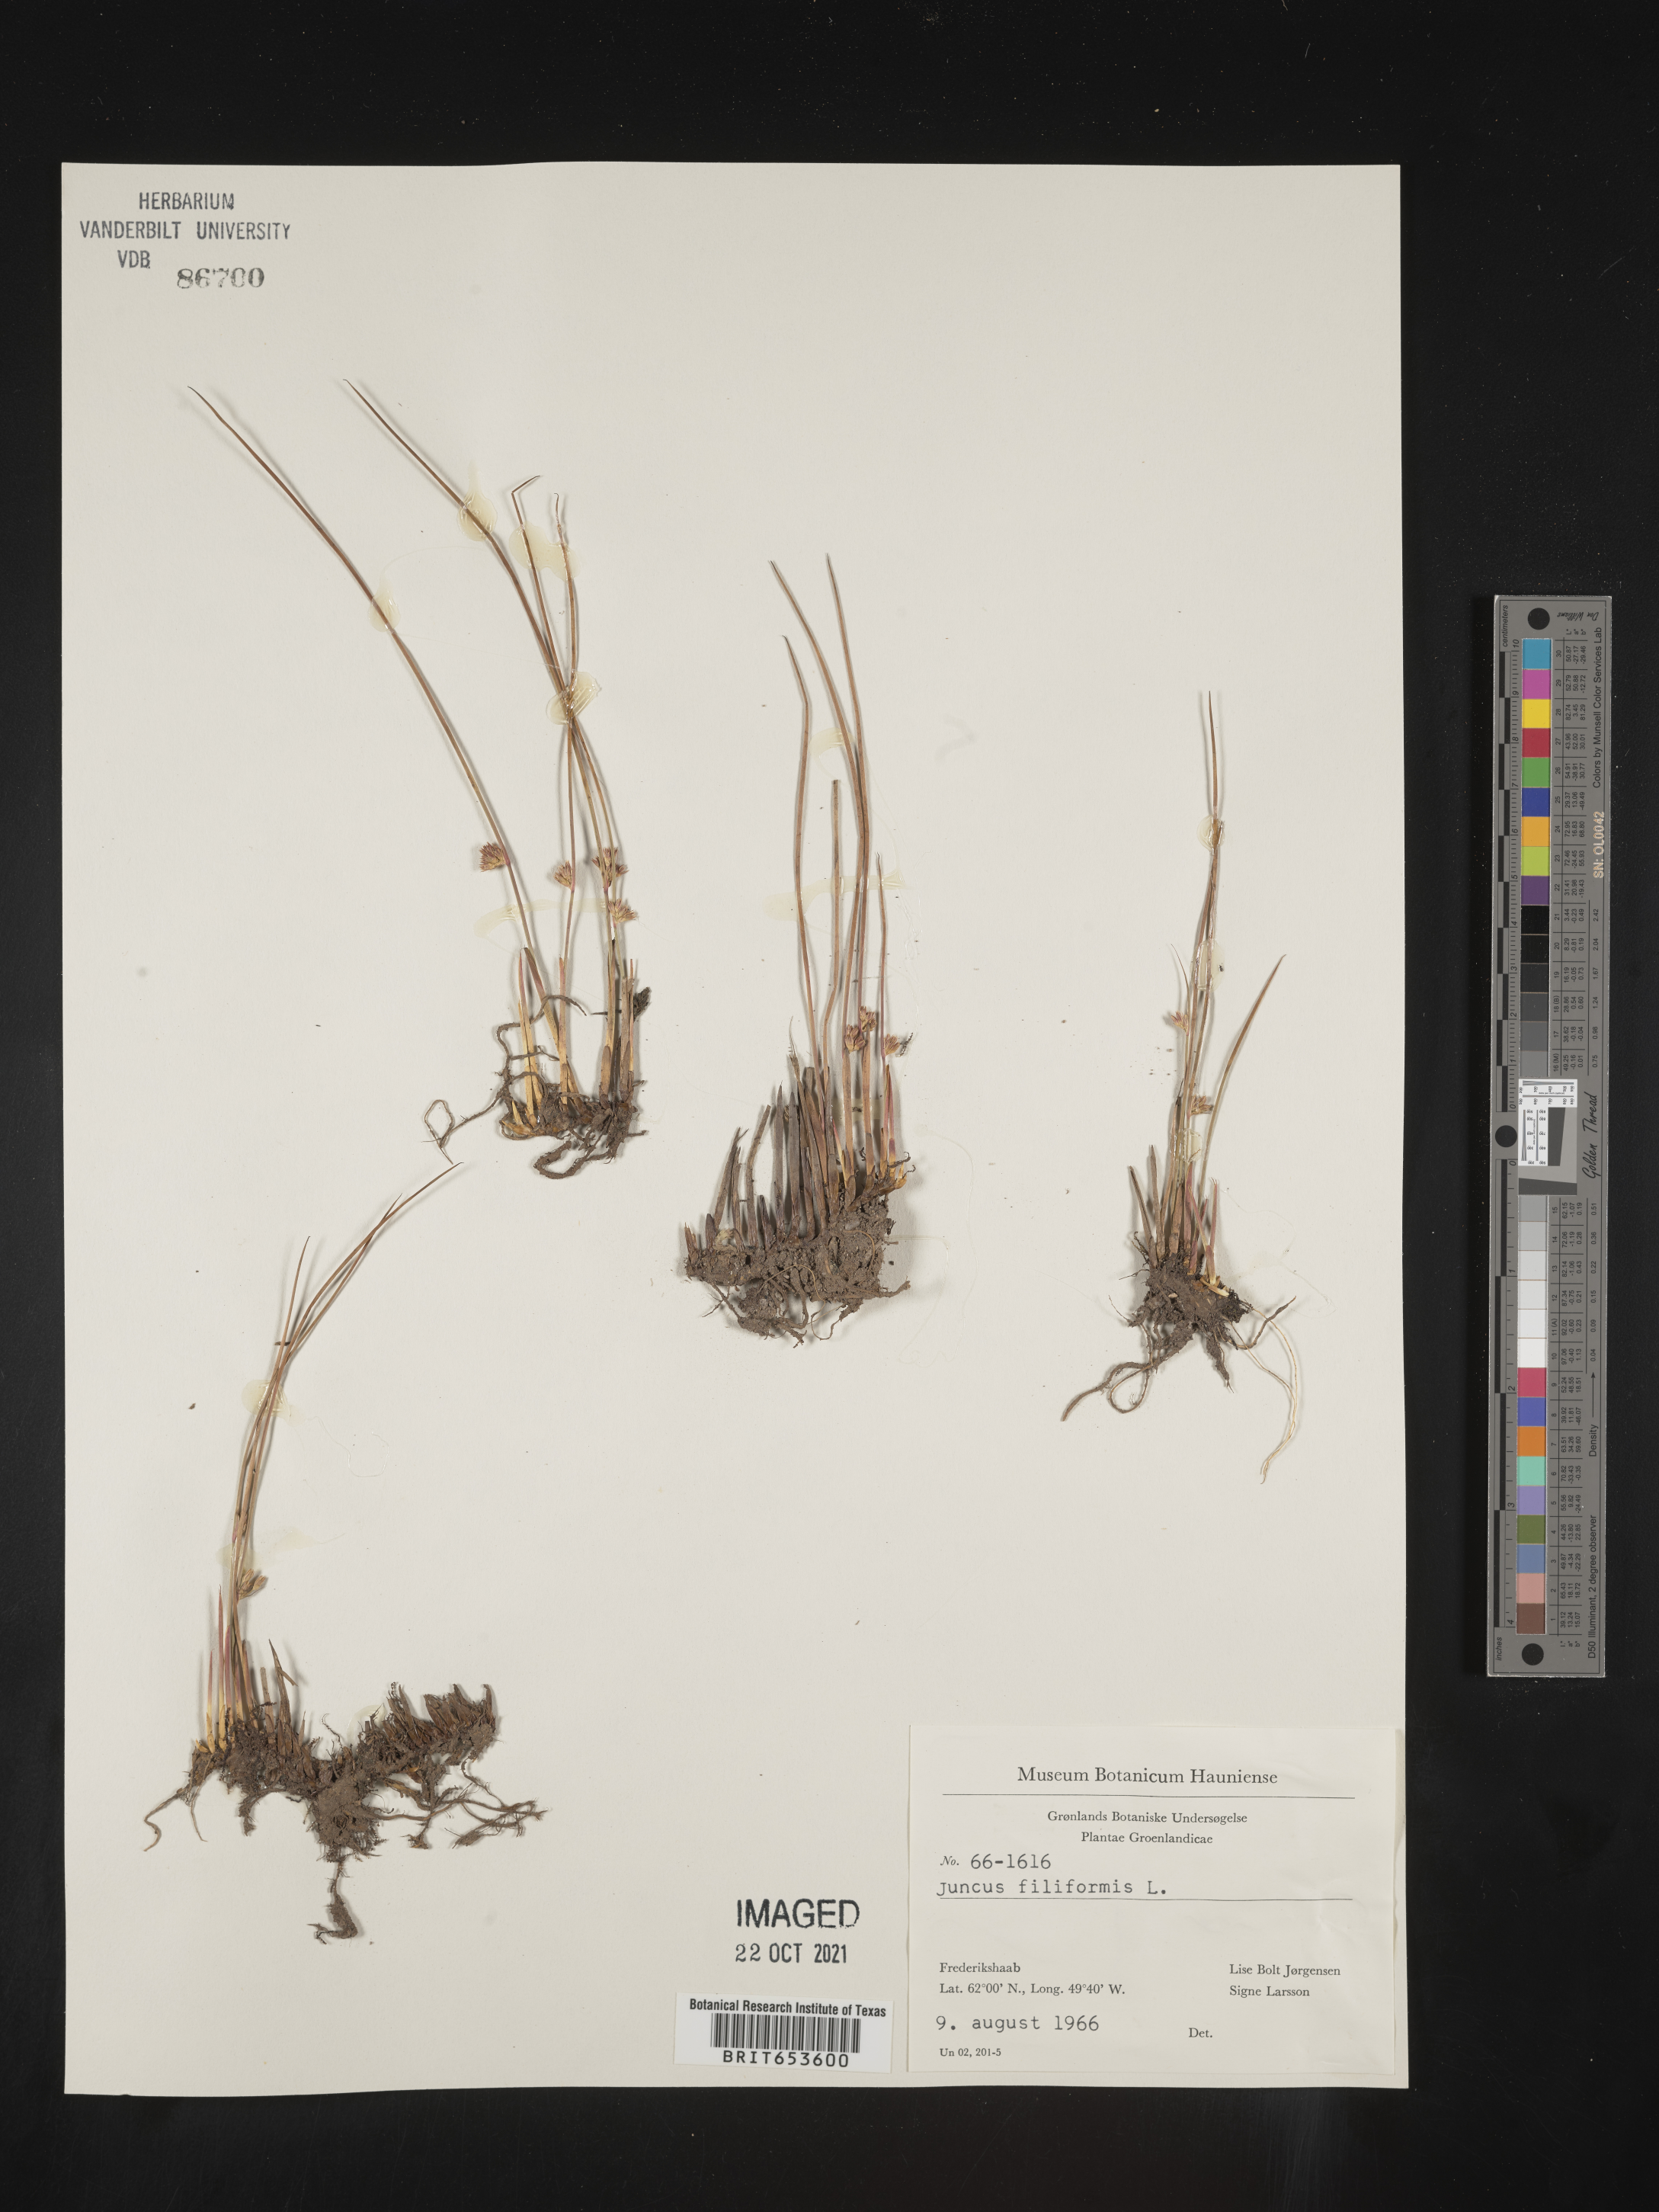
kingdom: Plantae
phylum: Tracheophyta
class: Liliopsida
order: Poales
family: Juncaceae
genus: Juncus
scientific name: Juncus
